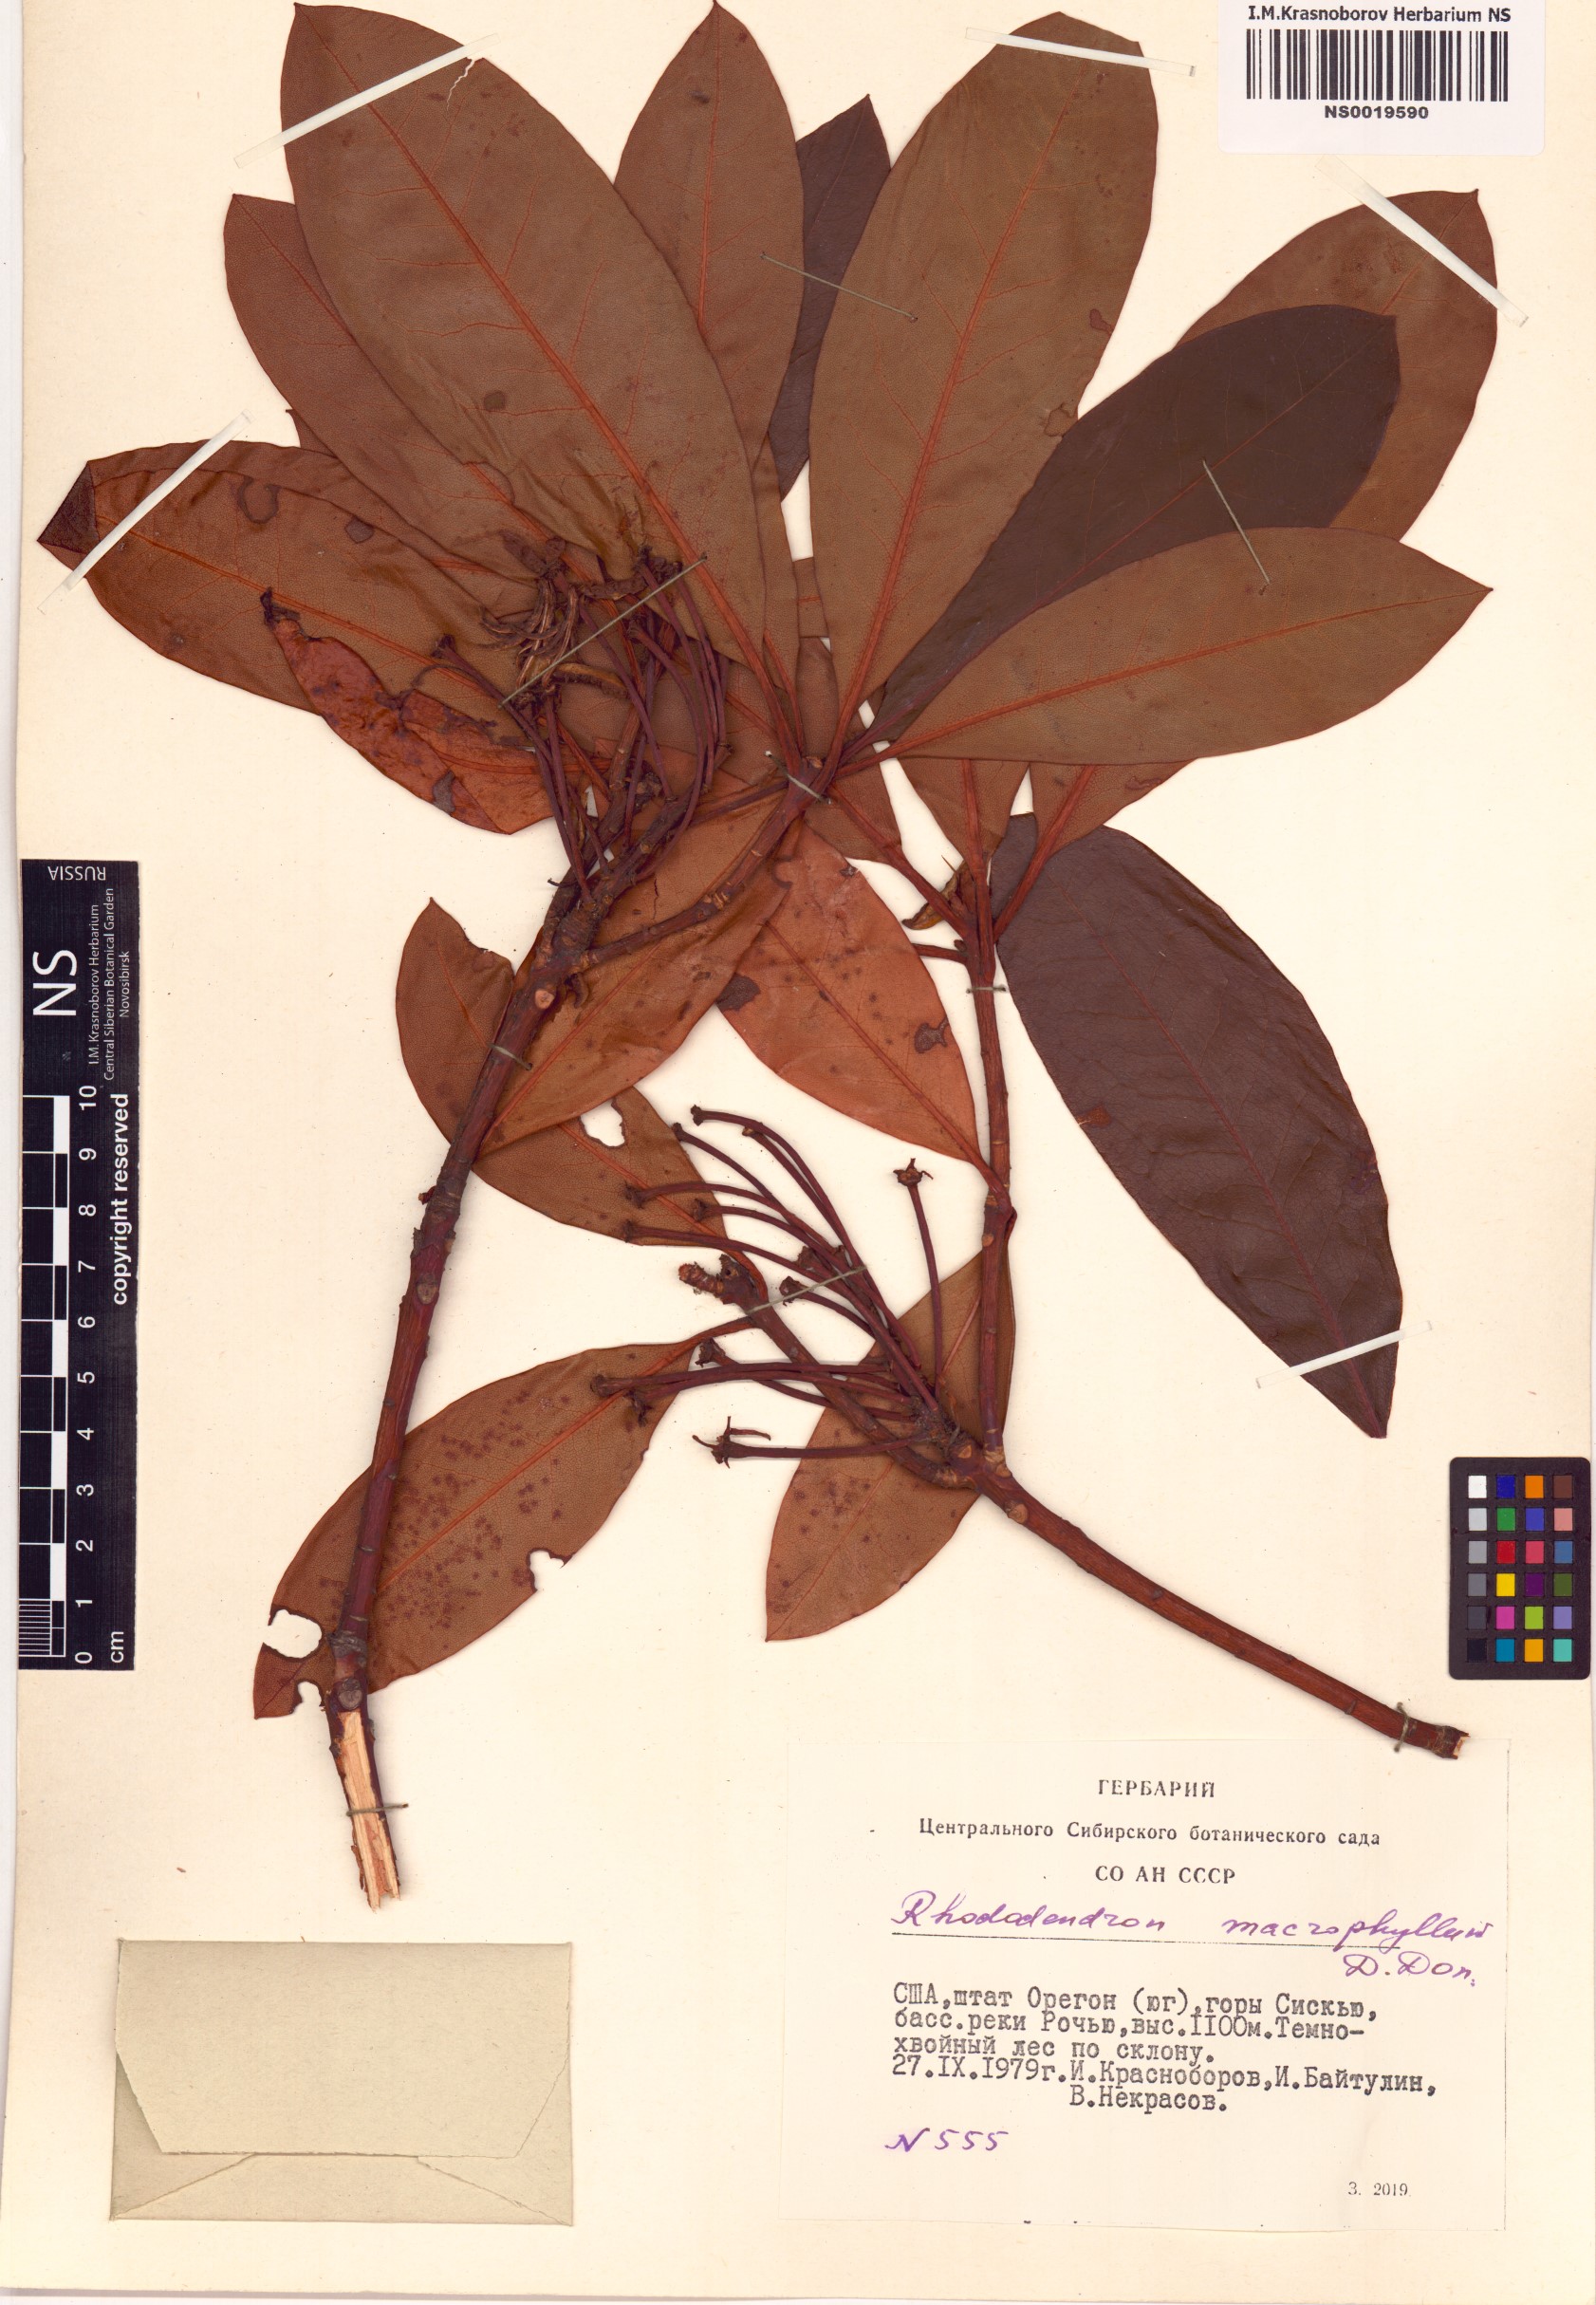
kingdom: Plantae
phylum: Tracheophyta
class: Magnoliopsida
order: Ericales
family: Ericaceae
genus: Rhododendron
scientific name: Rhododendron macrophyllum
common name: California rose bay
